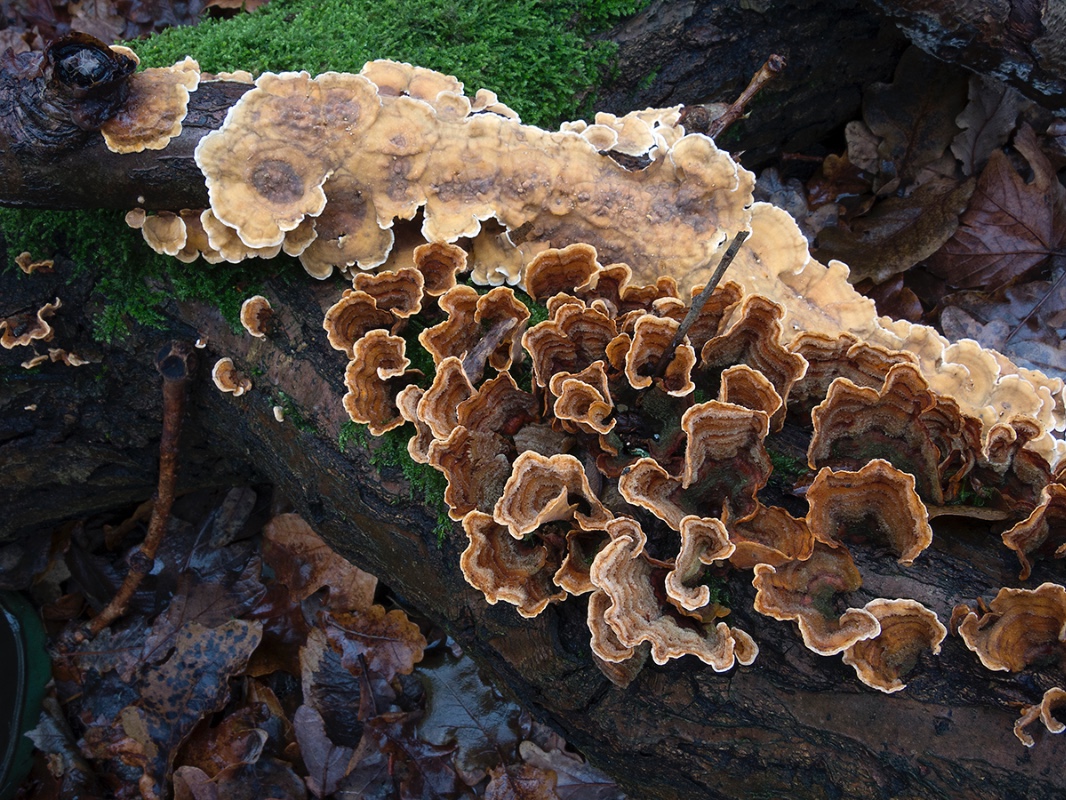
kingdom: Fungi
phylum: Basidiomycota
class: Agaricomycetes
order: Russulales
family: Stereaceae
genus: Stereum
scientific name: Stereum subtomentosum
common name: smuk lædersvamp
